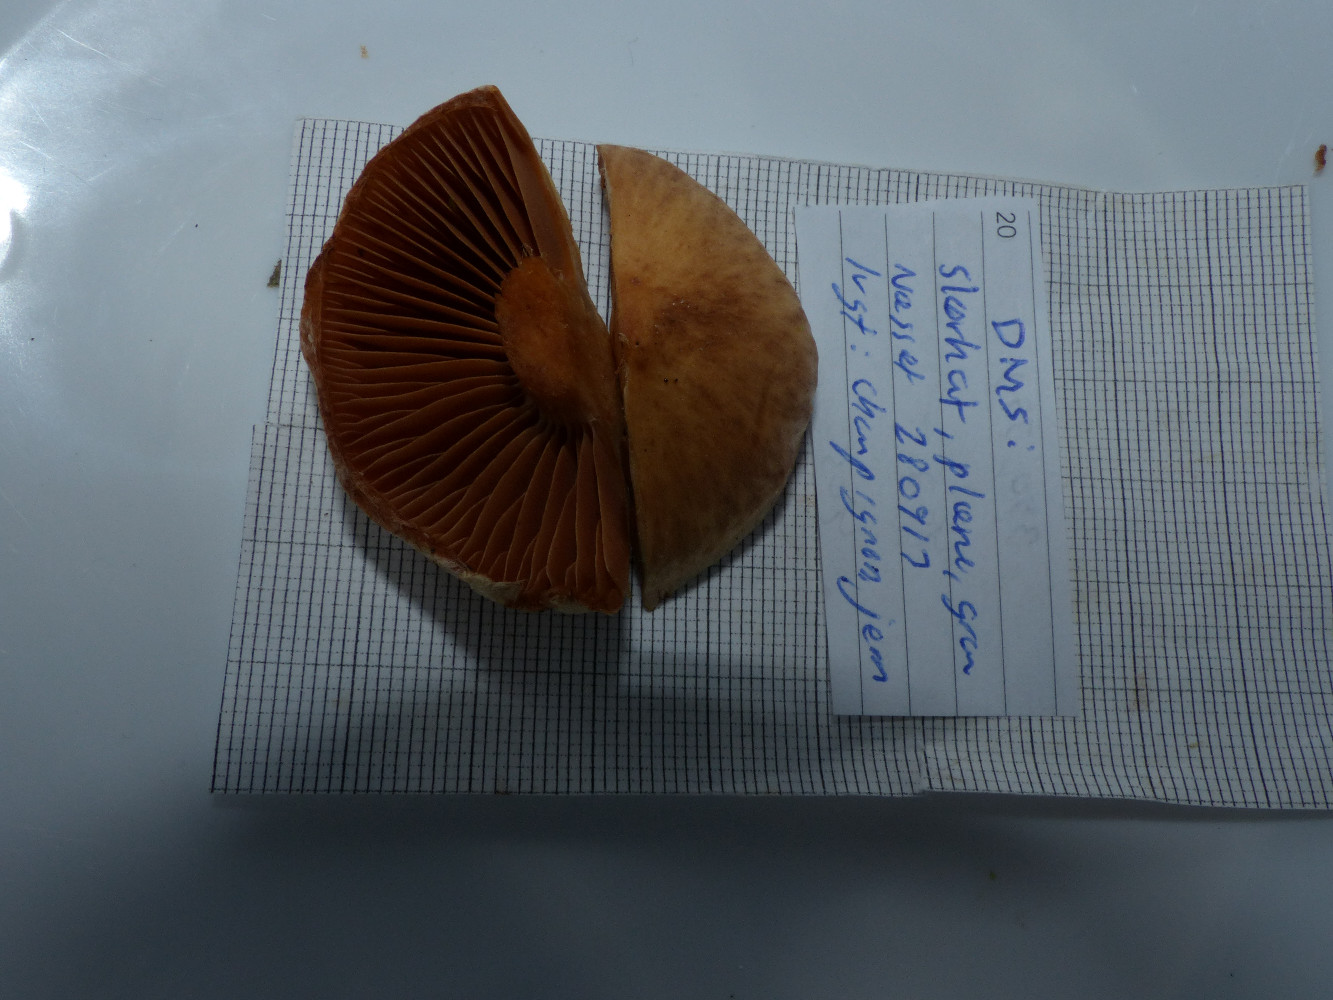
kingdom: Fungi
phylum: Basidiomycota
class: Agaricomycetes
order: Agaricales
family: Cortinariaceae
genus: Cortinarius
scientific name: Cortinarius hinnuleus
